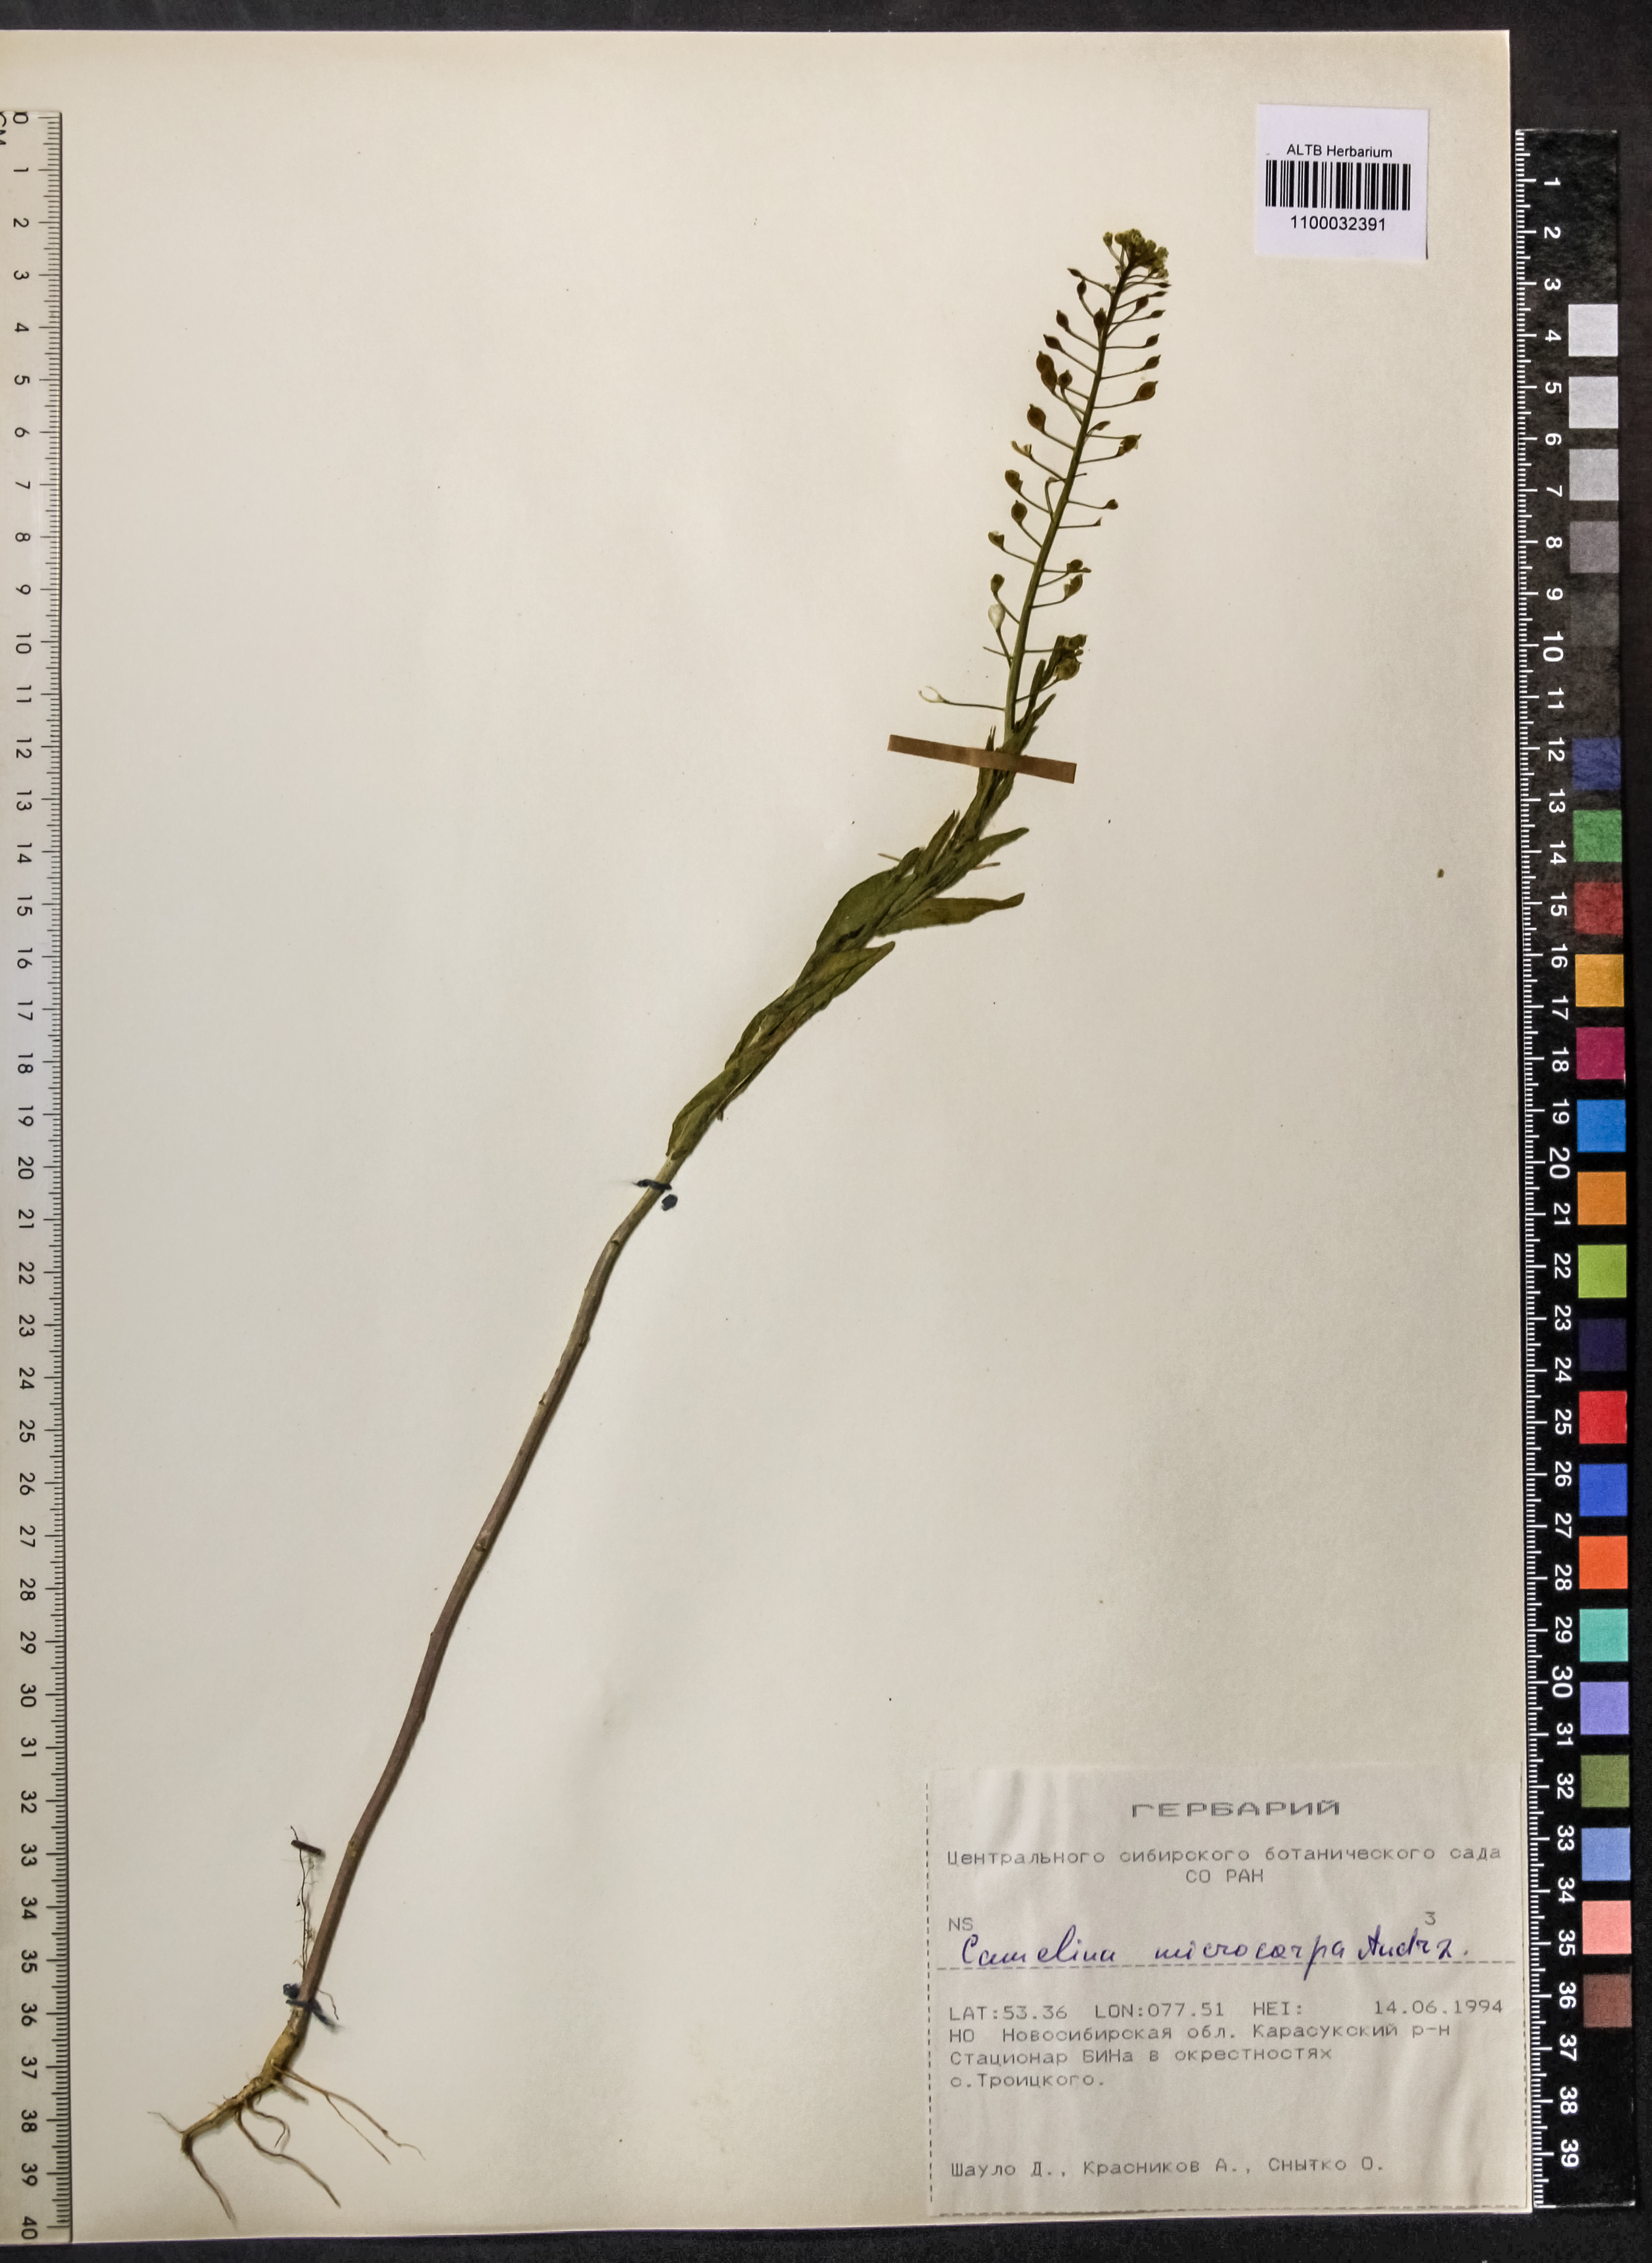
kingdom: Plantae
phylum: Tracheophyta
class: Magnoliopsida
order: Brassicales
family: Brassicaceae
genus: Camelina
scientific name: Camelina microcarpa
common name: Lesser gold-of-pleasure
